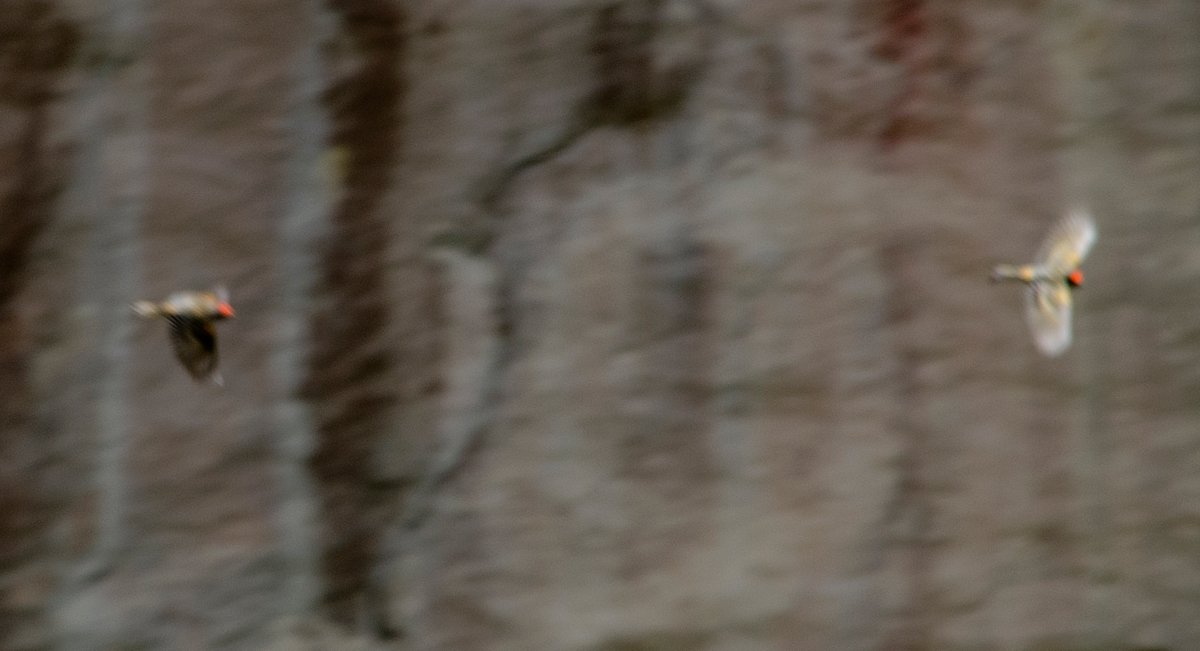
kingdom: Animalia
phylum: Chordata
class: Aves
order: Passeriformes
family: Fringillidae
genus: Serinus
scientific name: Serinus pusillus
